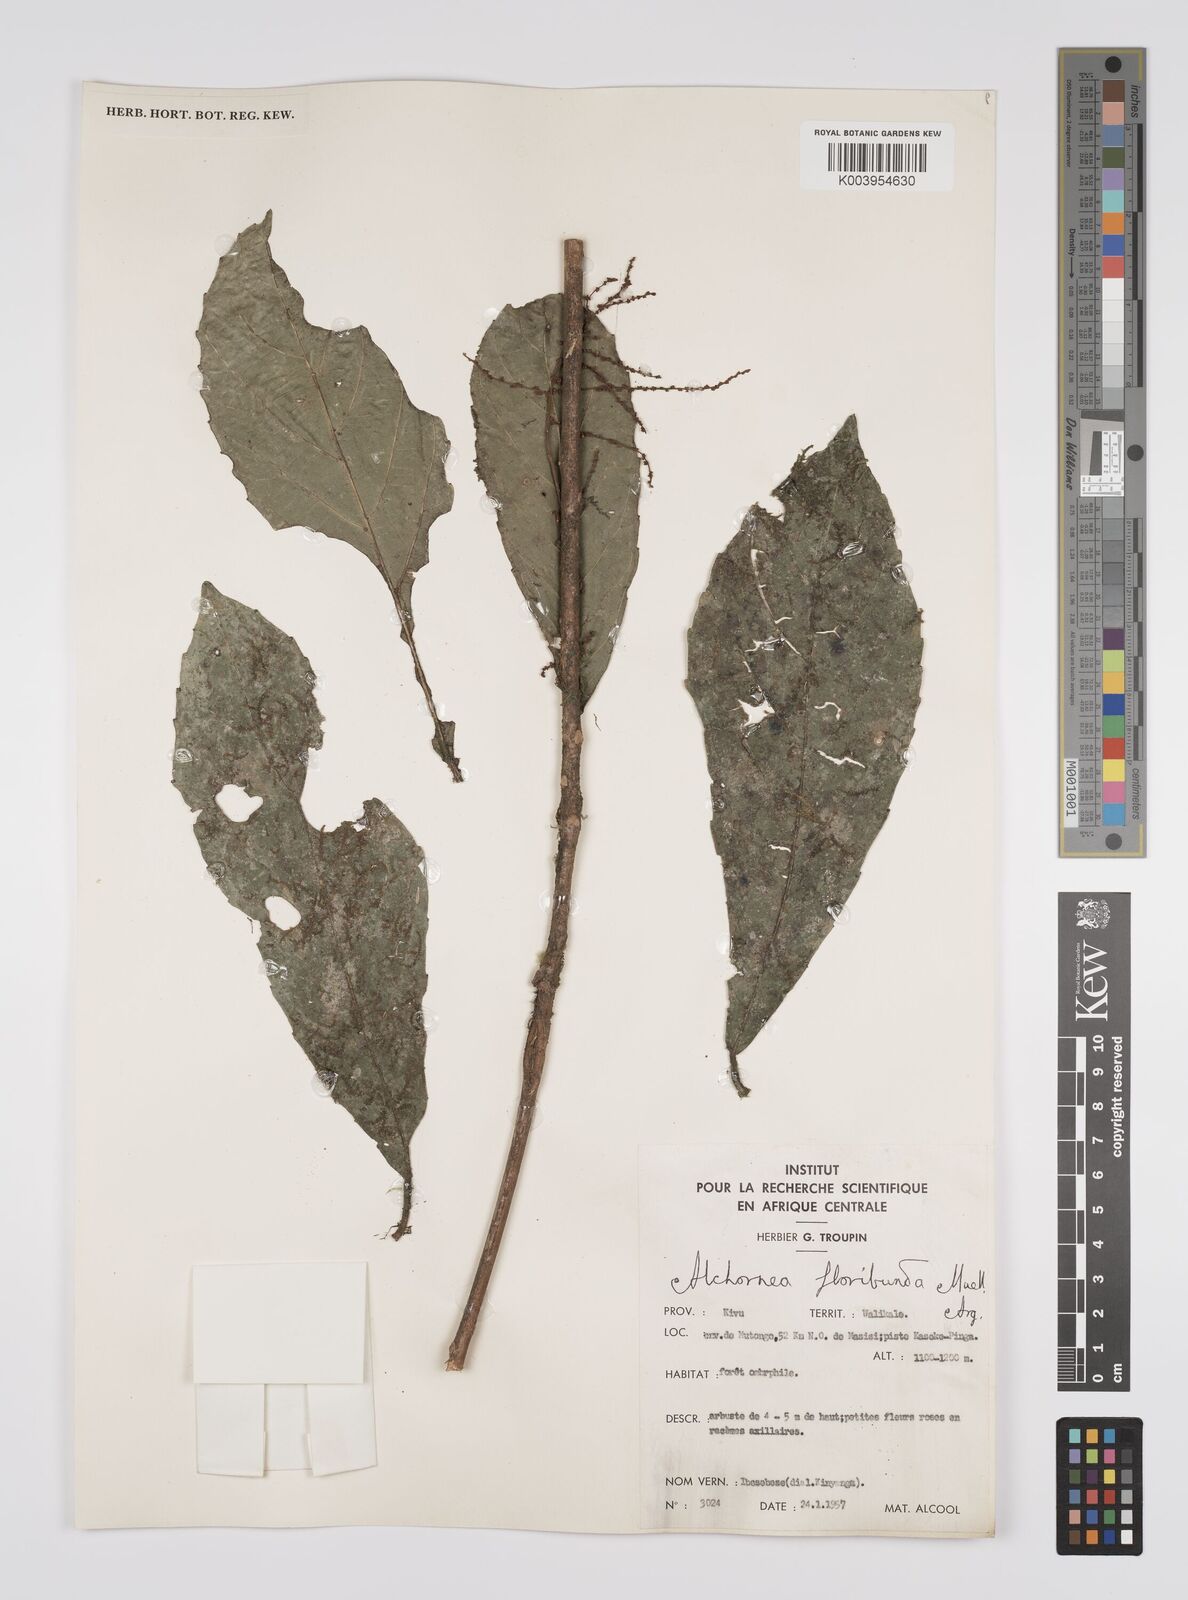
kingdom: Plantae
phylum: Tracheophyta
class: Magnoliopsida
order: Malpighiales
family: Euphorbiaceae
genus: Alchornea
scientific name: Alchornea floribunda
